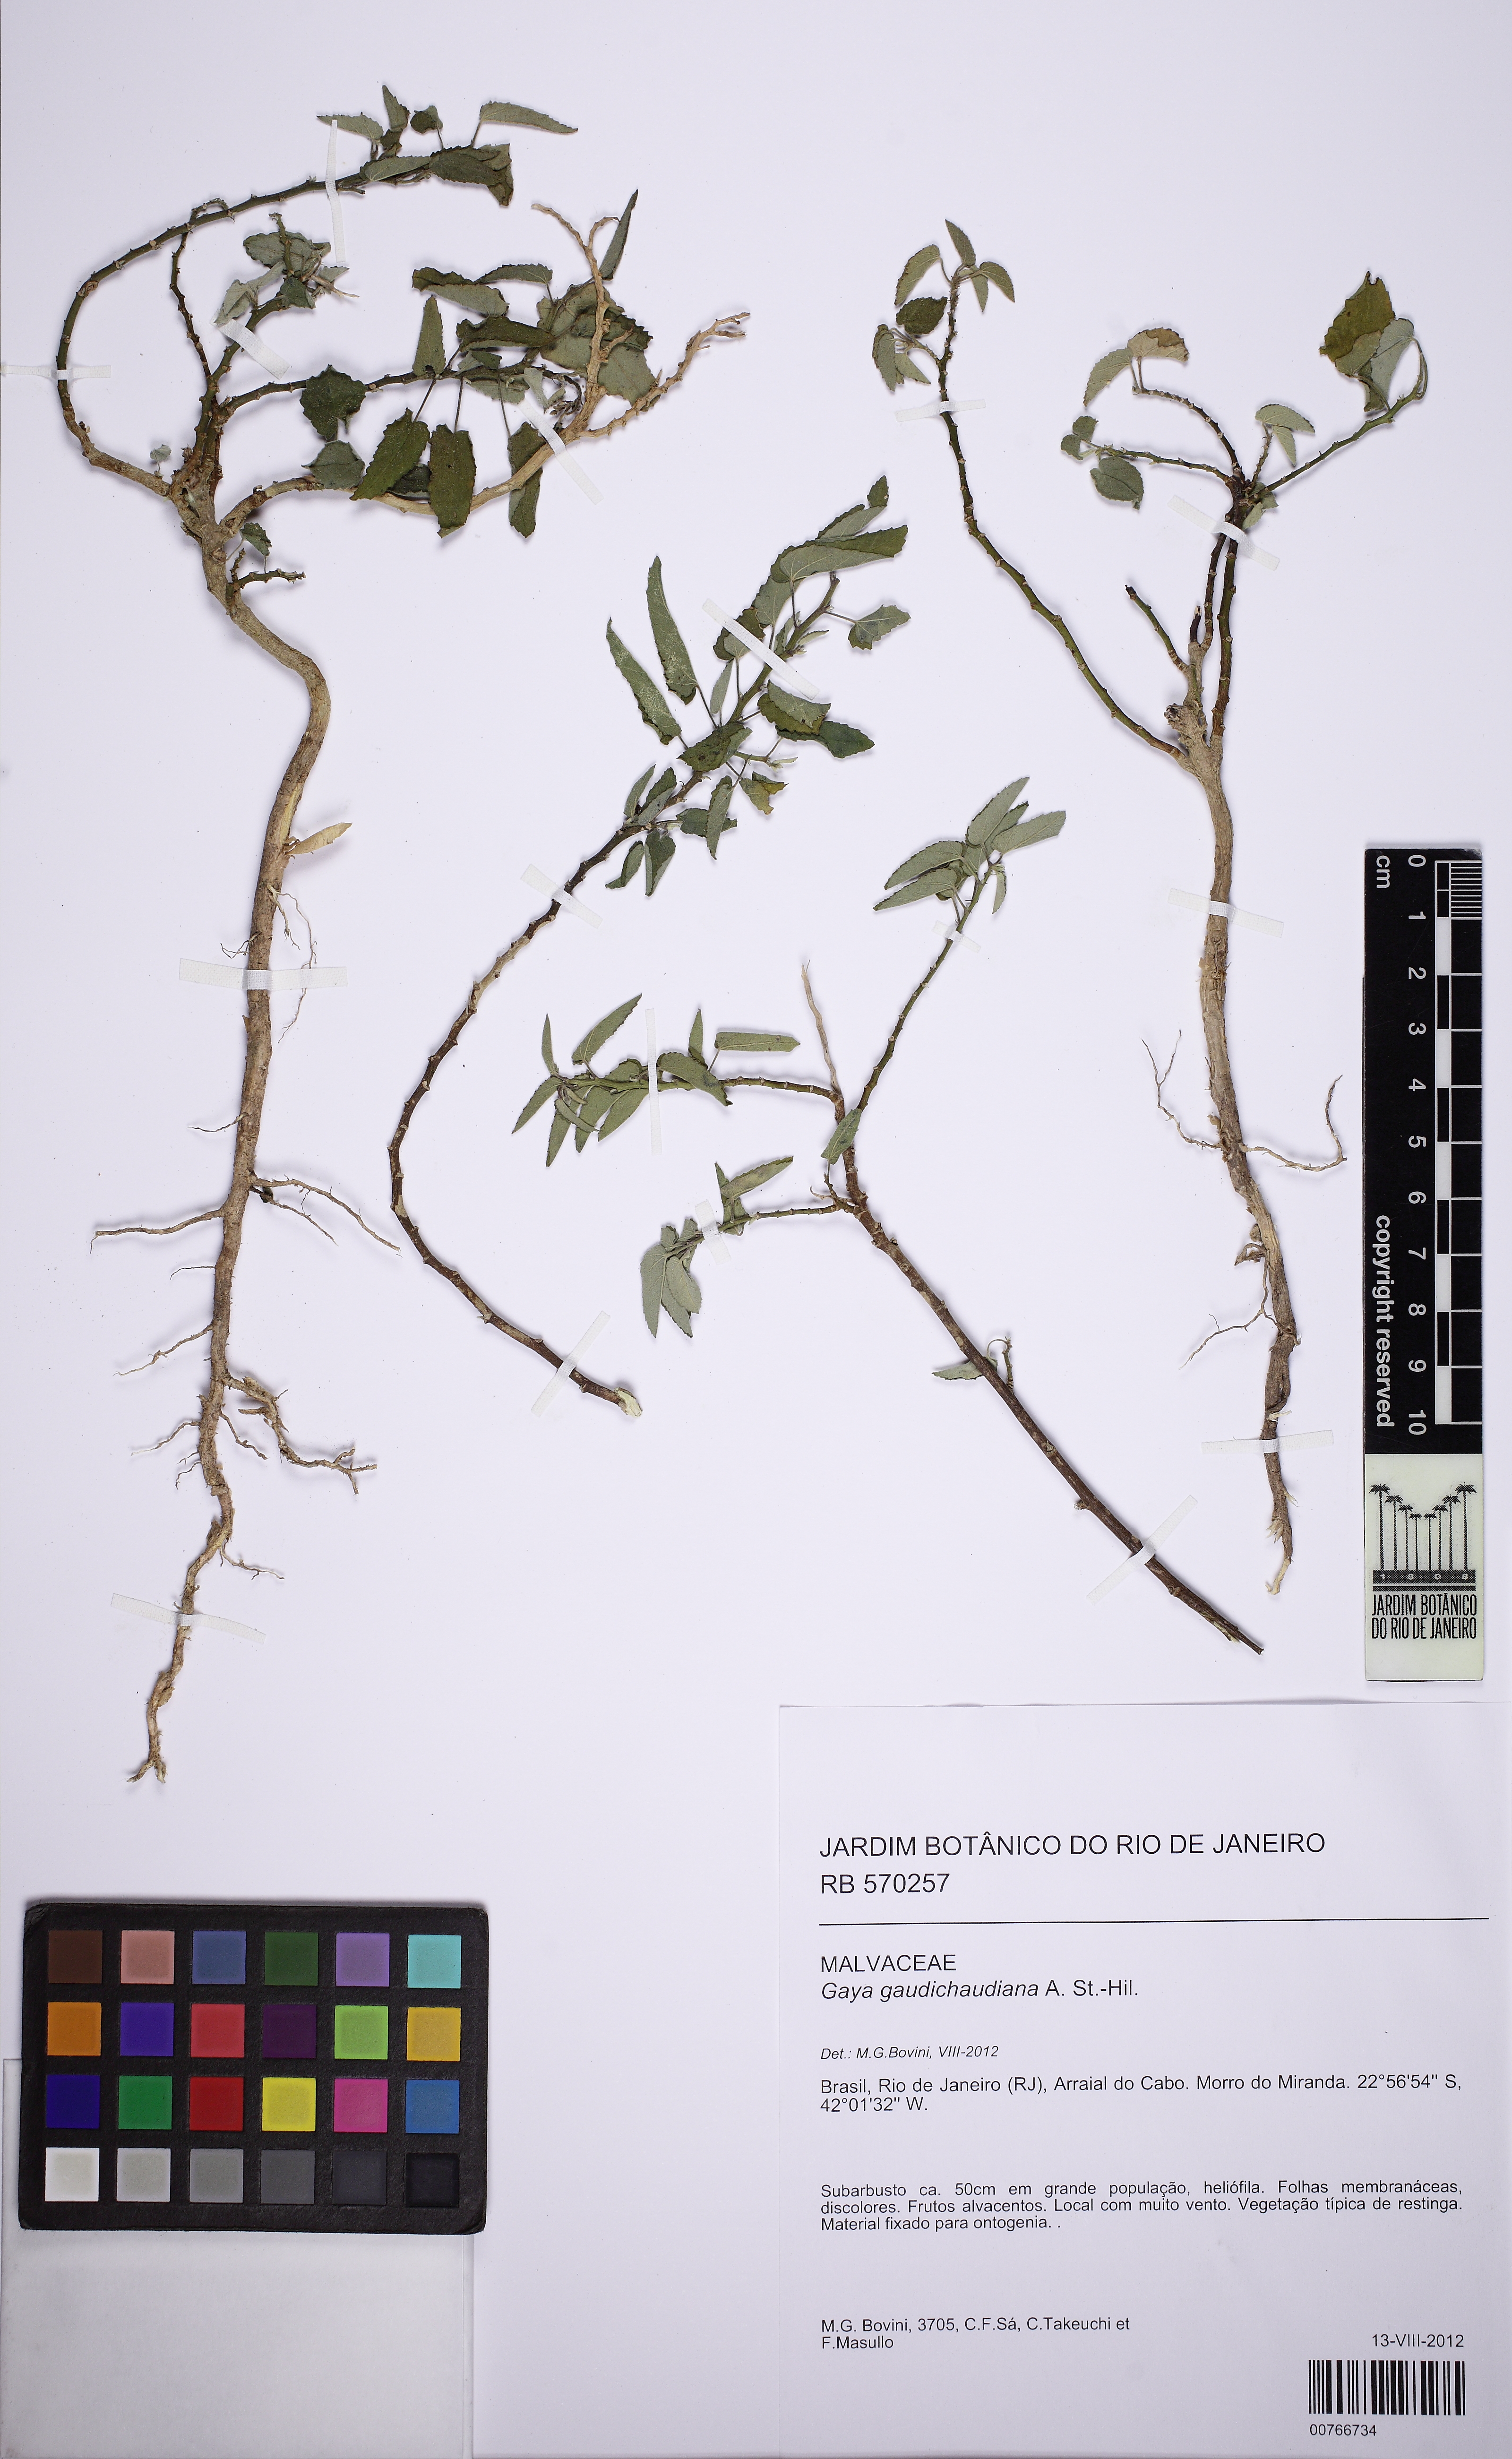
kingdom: Plantae
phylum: Tracheophyta
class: Magnoliopsida
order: Malvales
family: Malvaceae
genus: Gaya
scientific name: Gaya gaudichaudiana
